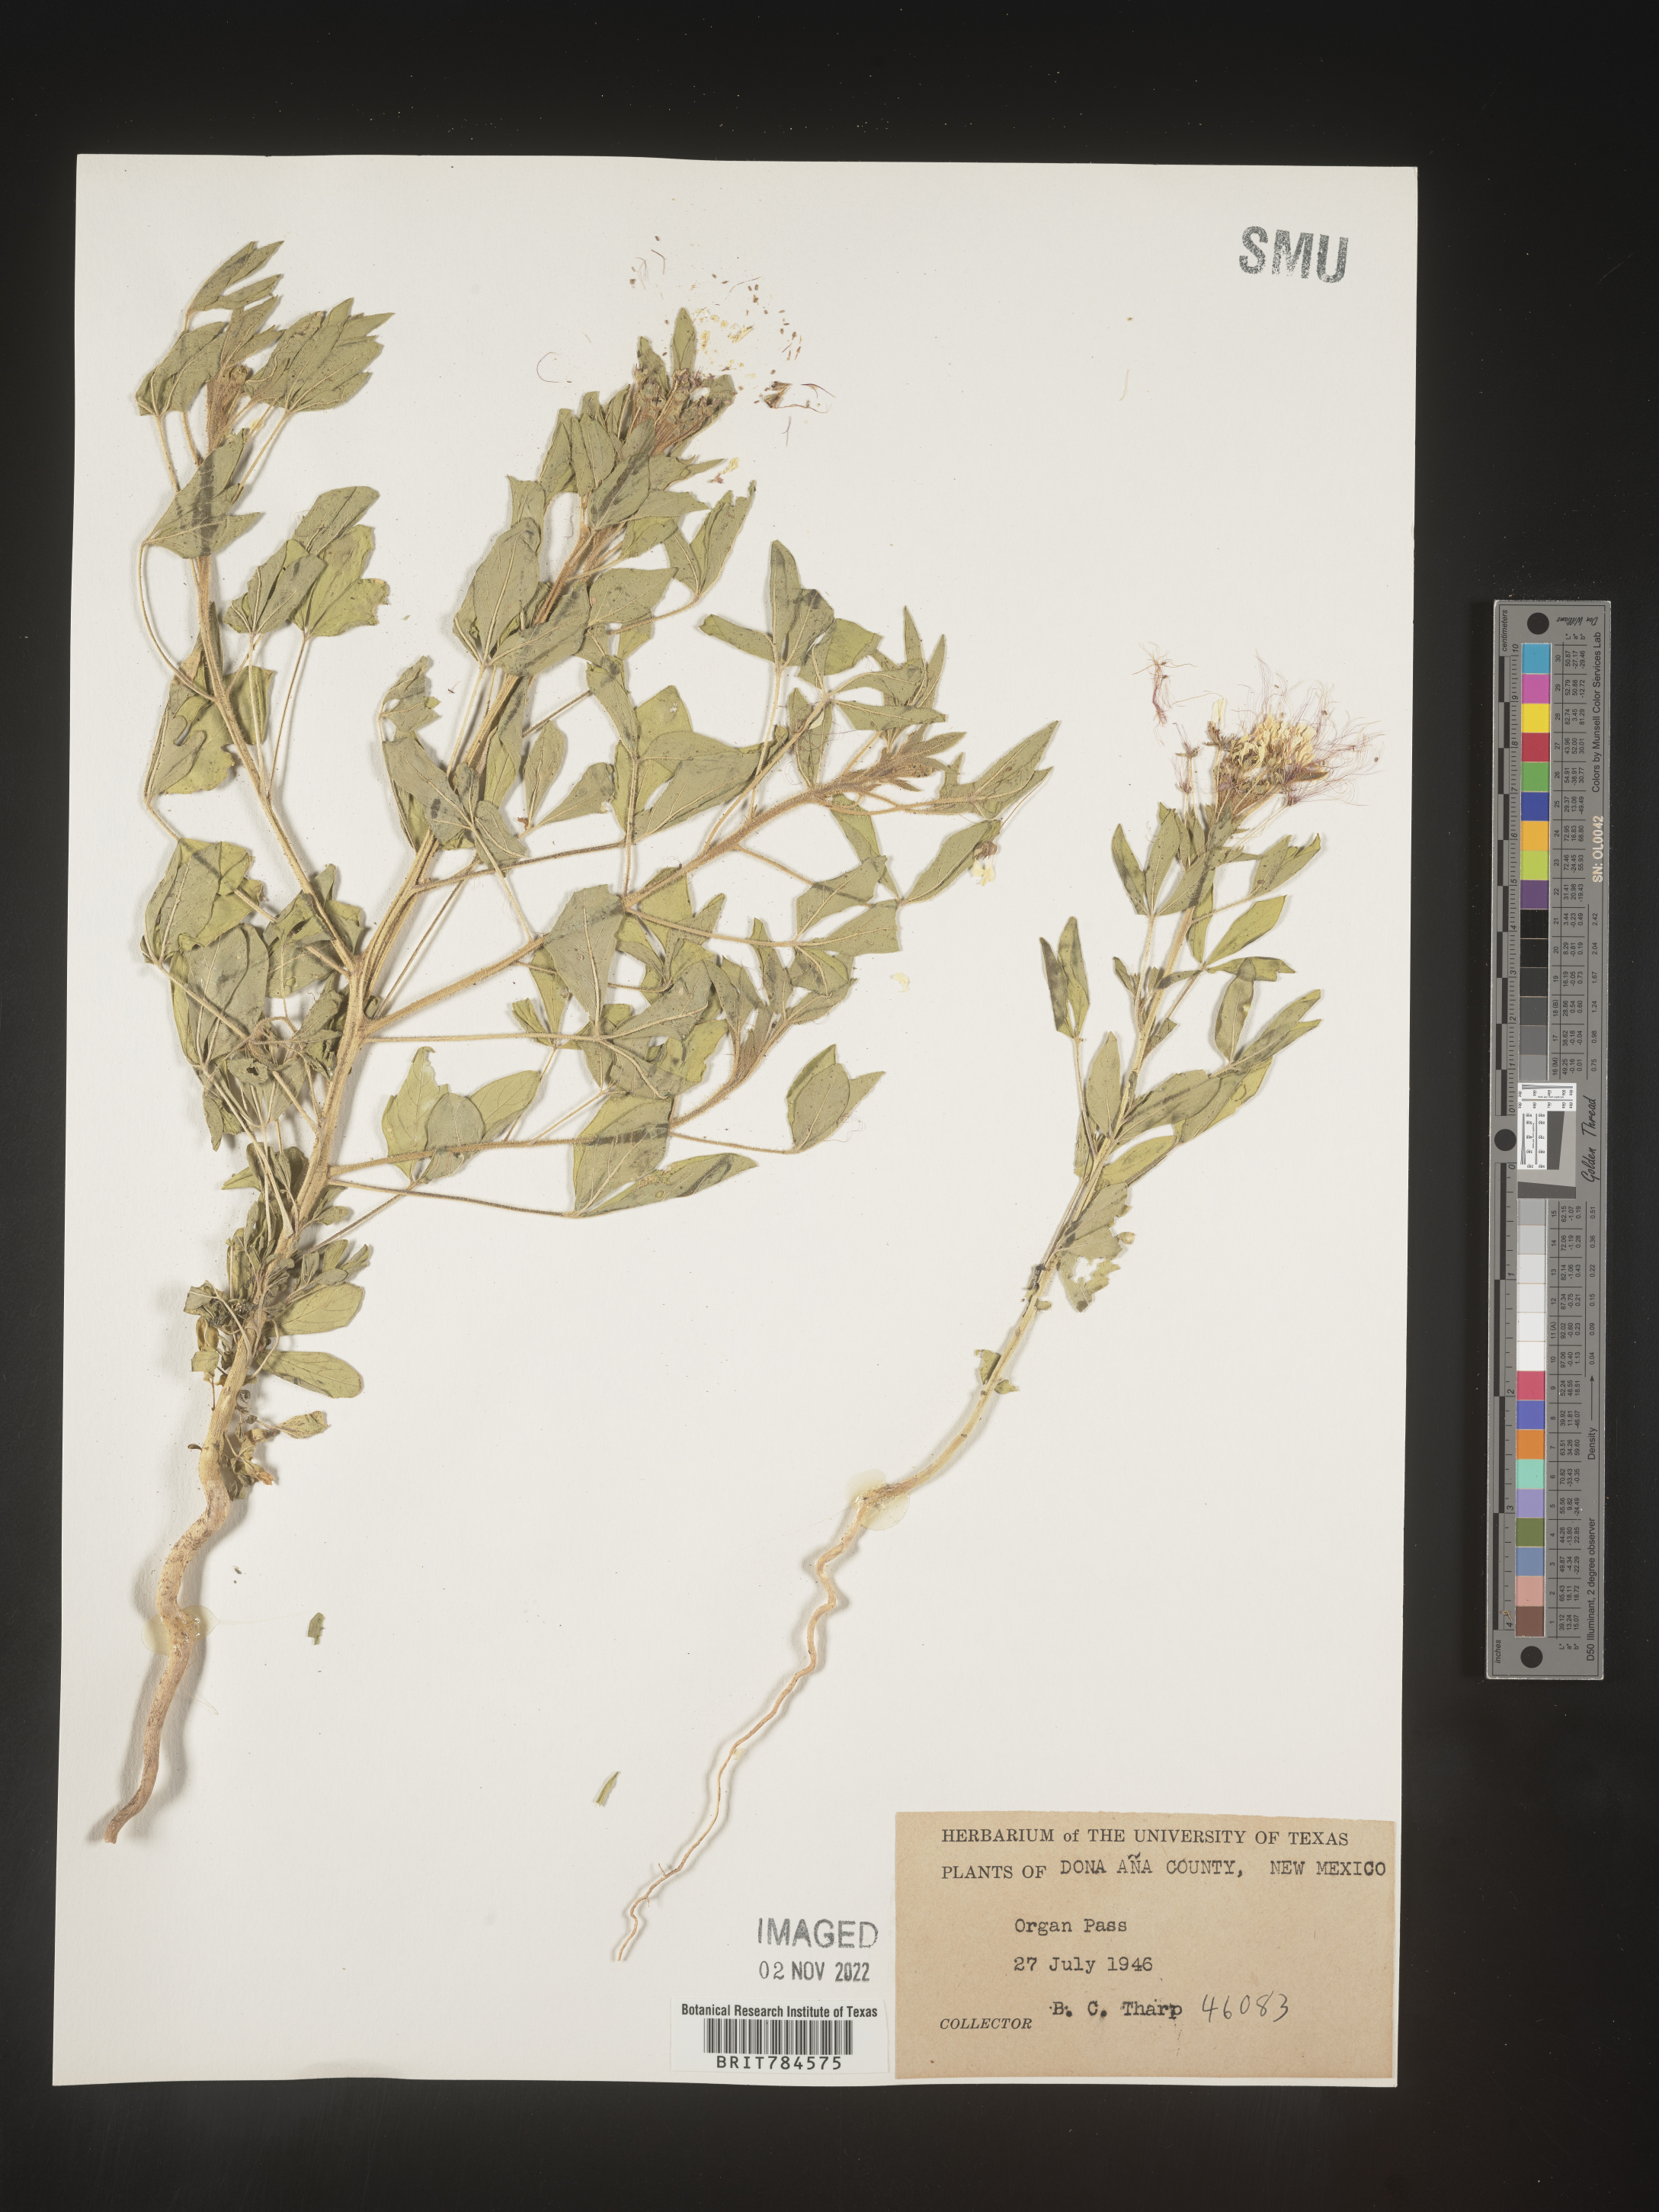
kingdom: Plantae
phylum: Tracheophyta
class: Magnoliopsida
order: Brassicales
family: Cleomaceae
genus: Polanisia
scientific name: Polanisia
